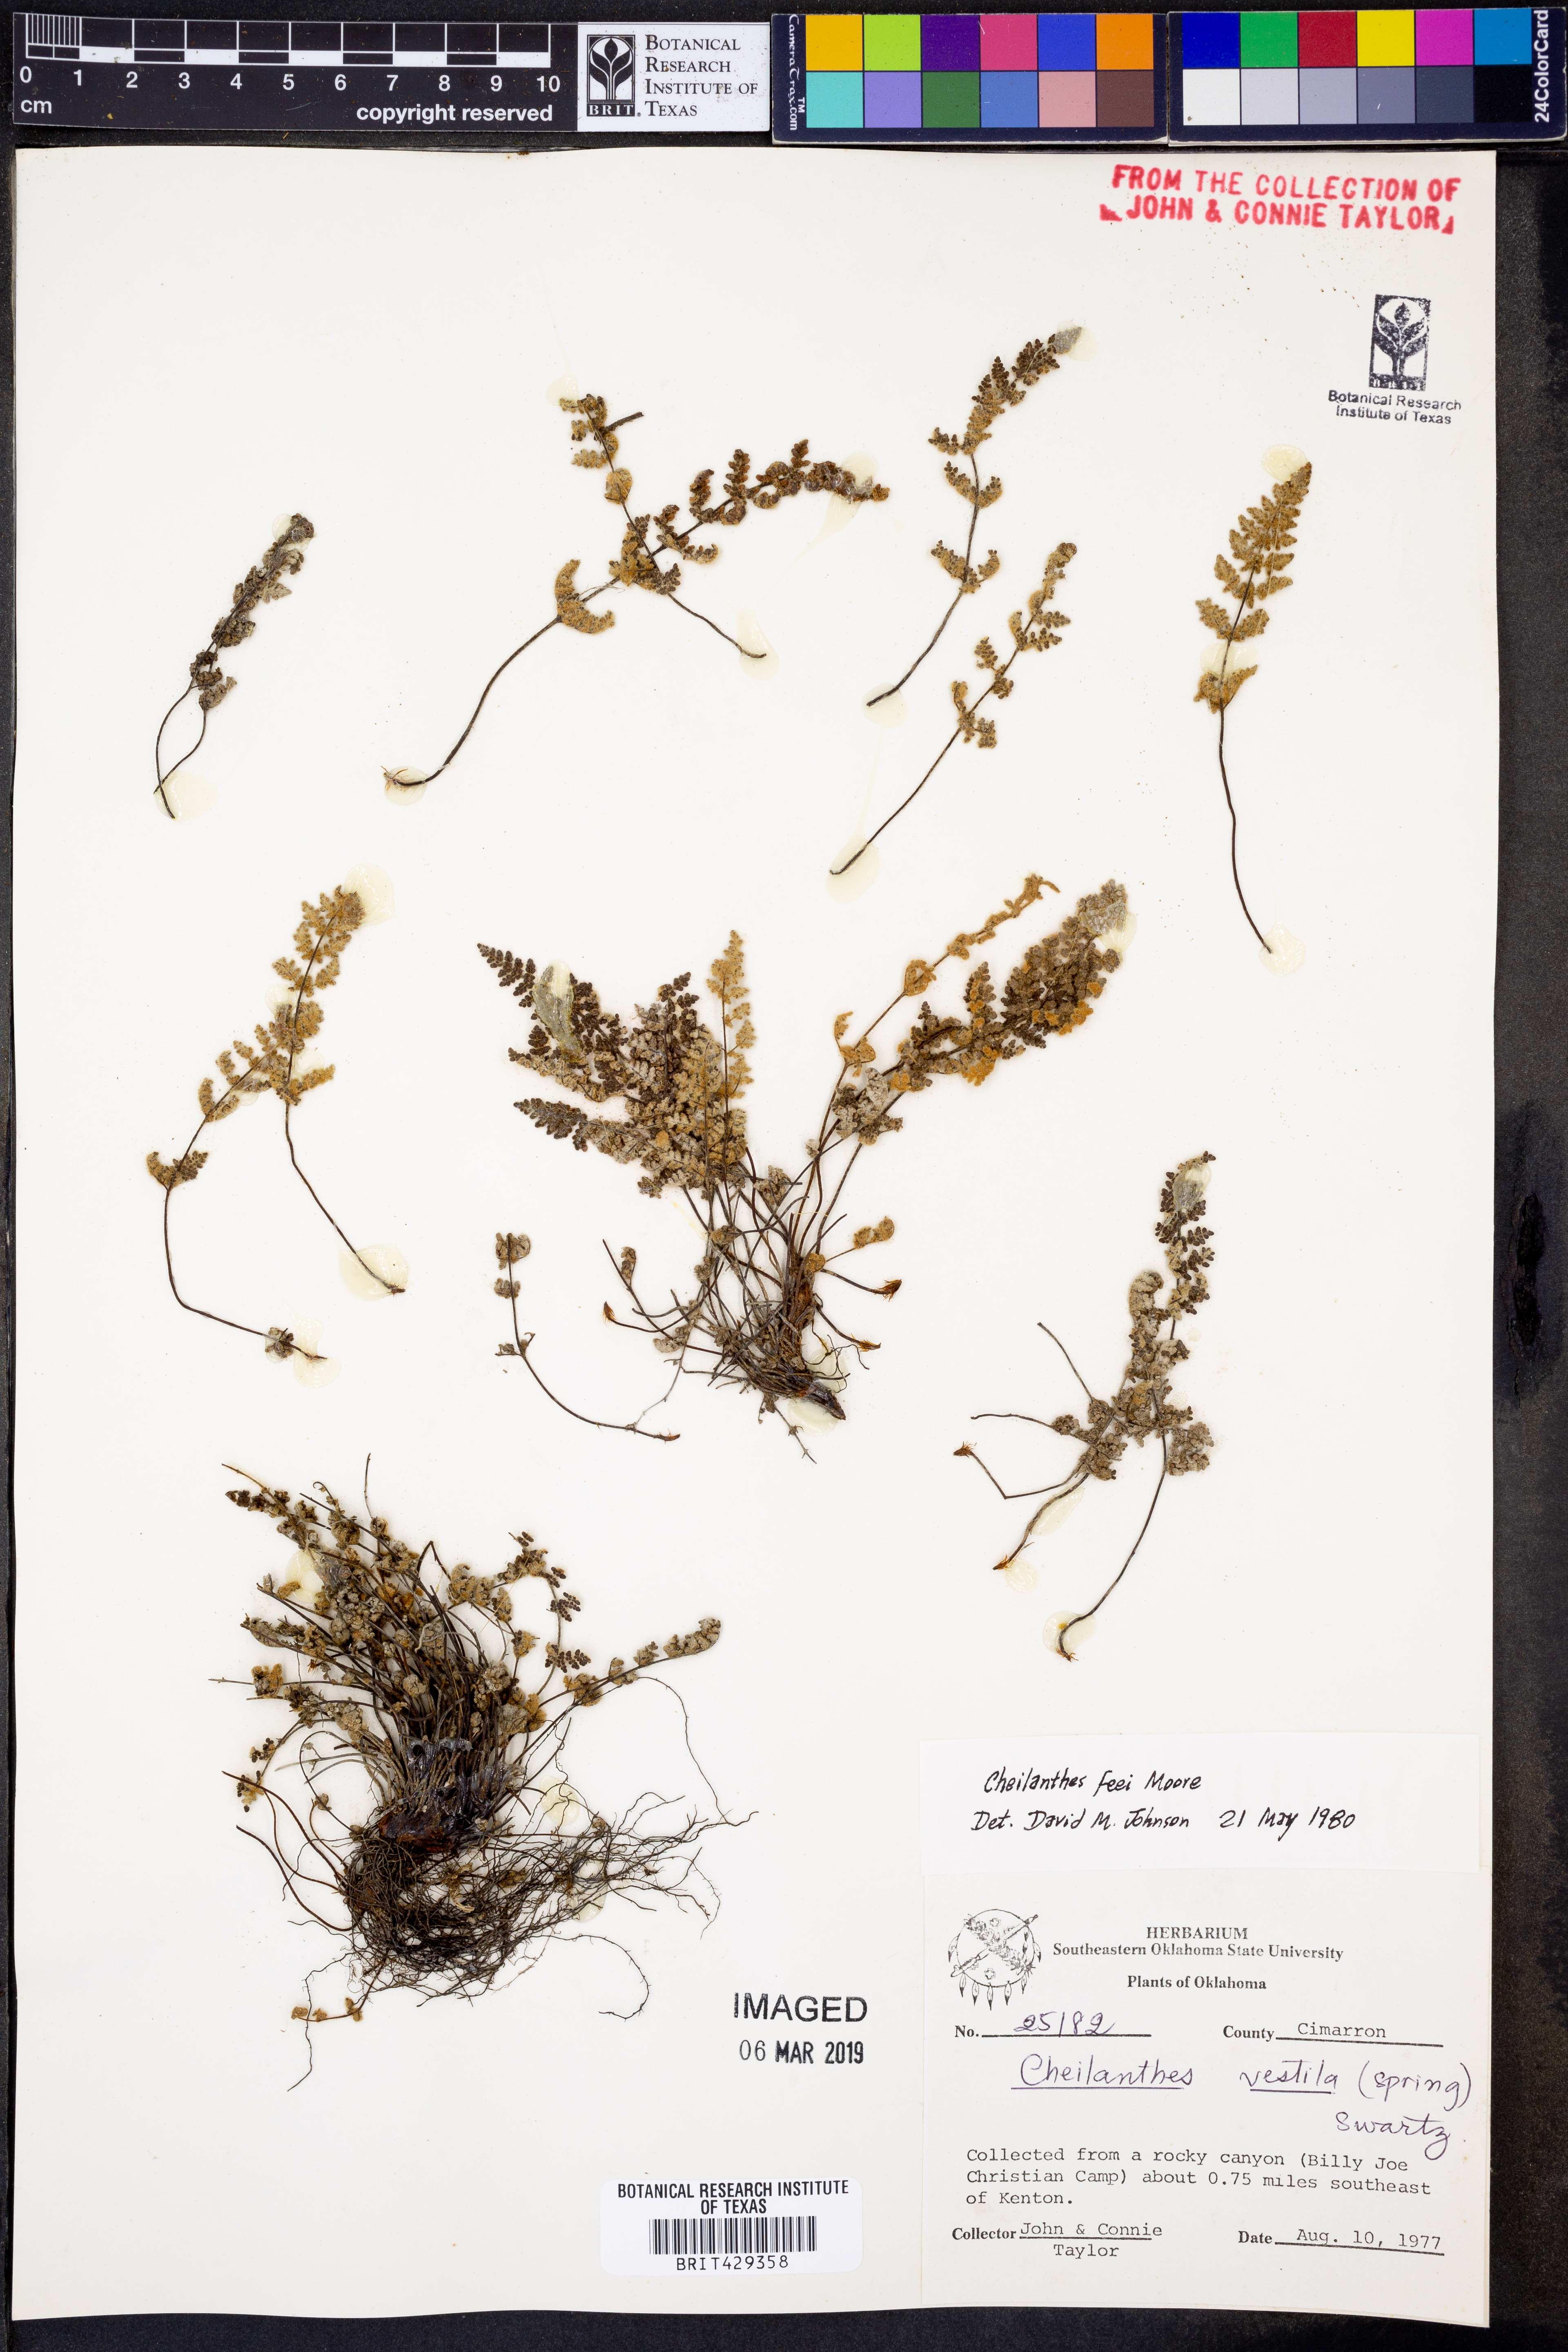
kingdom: Plantae
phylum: Tracheophyta
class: Polypodiopsida
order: Polypodiales
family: Pteridaceae
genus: Myriopteris
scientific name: Myriopteris gracilis
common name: Fee's lip fern
